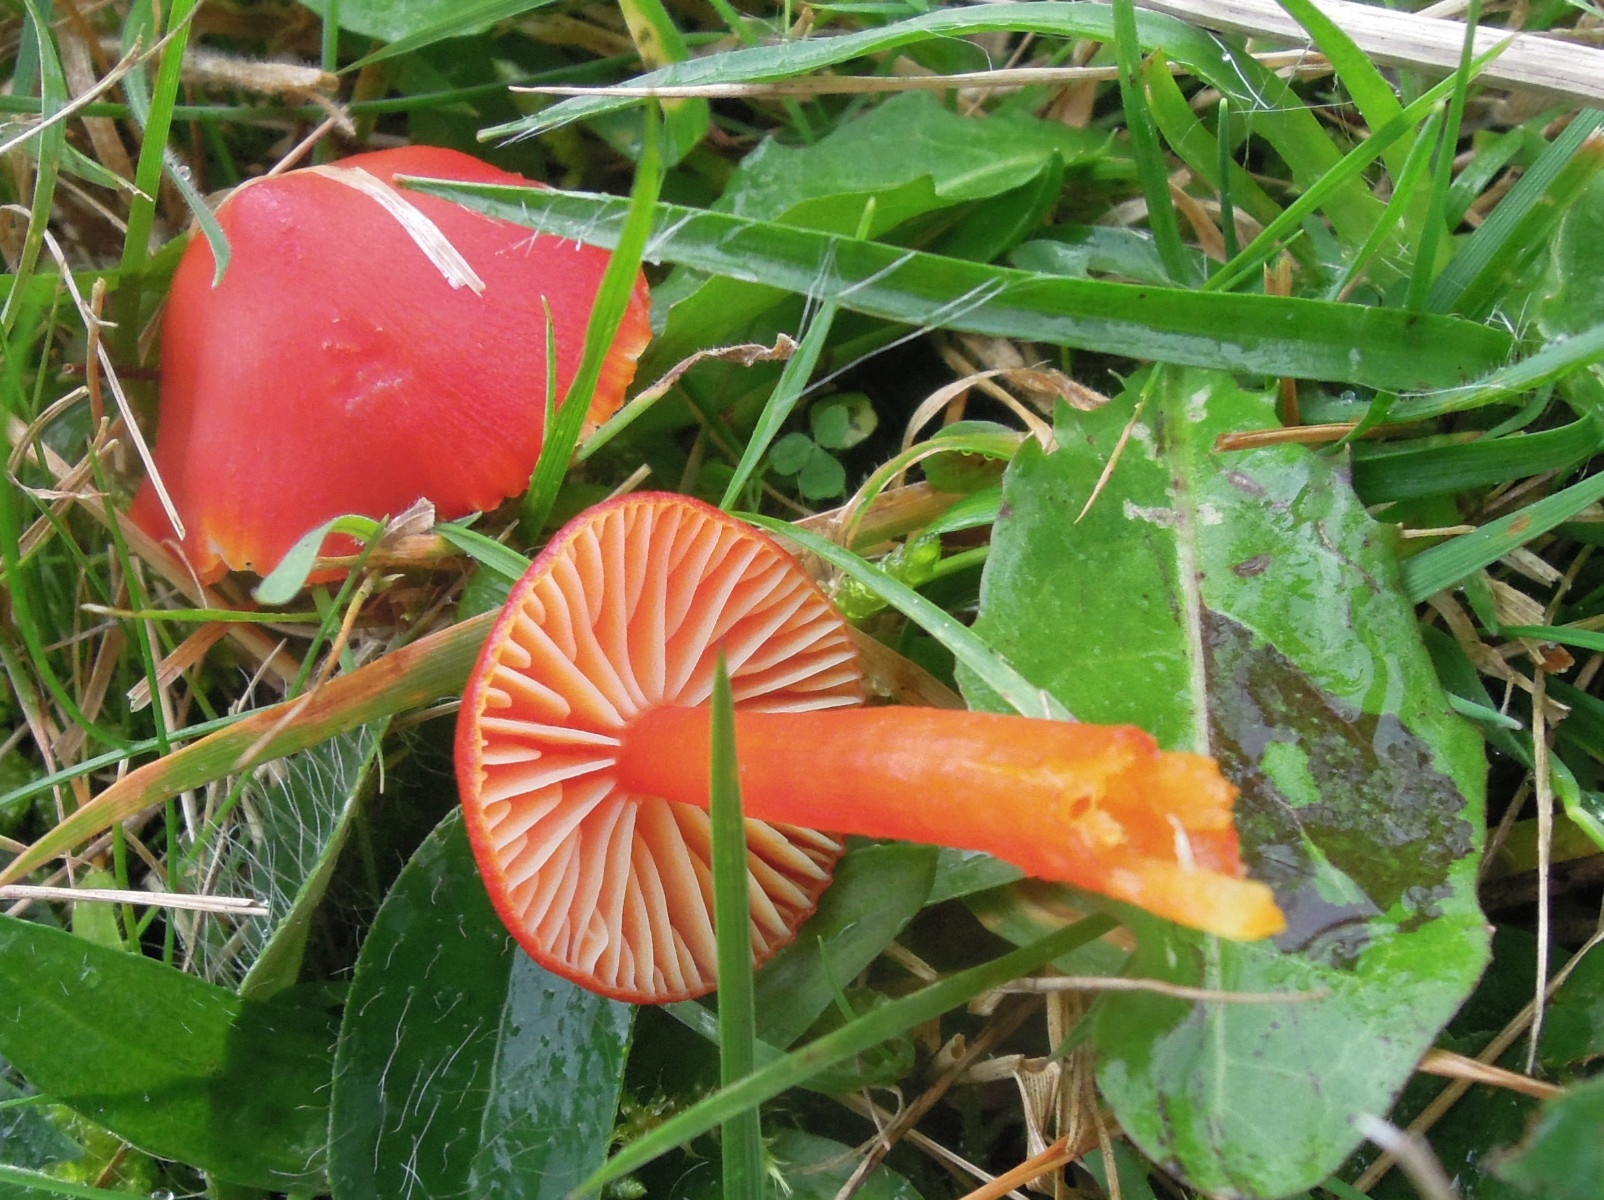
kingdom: Fungi
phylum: Basidiomycota
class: Agaricomycetes
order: Agaricales
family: Hygrophoraceae
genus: Hygrocybe
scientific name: Hygrocybe coccinea
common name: cinnober-vokshat
